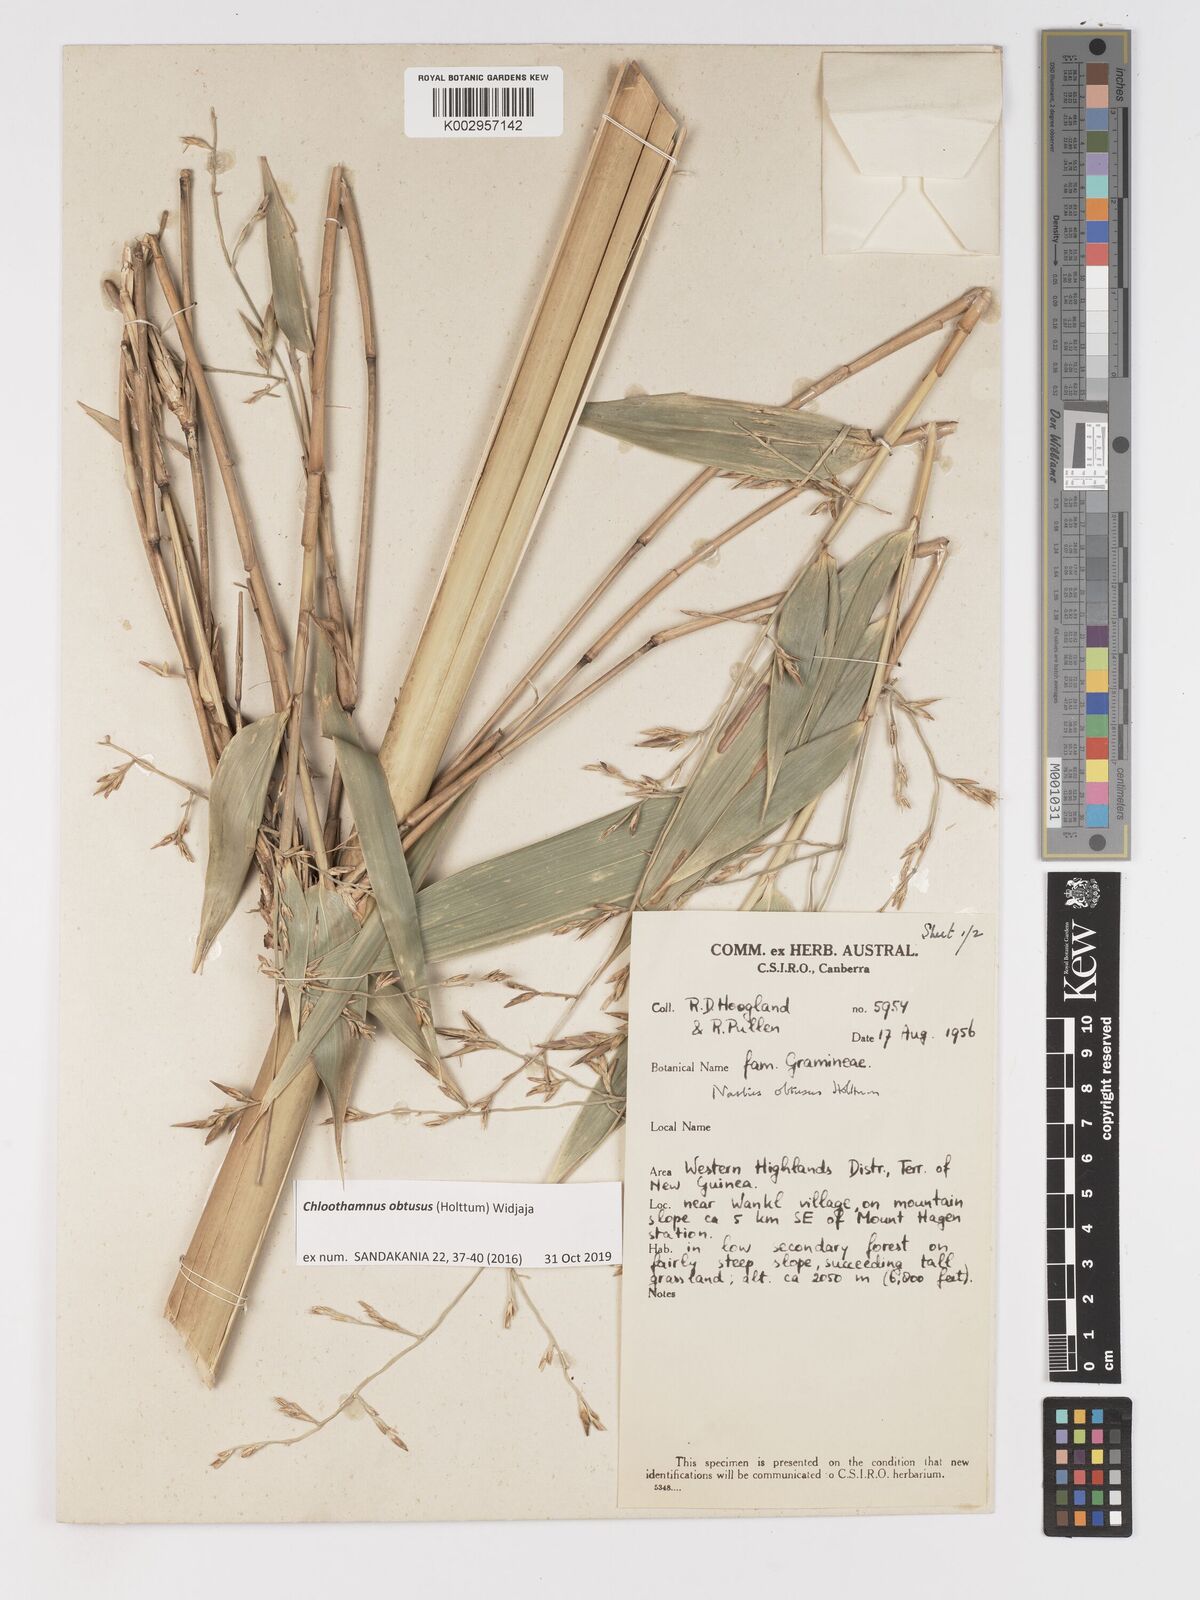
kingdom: Plantae
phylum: Tracheophyta
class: Liliopsida
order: Poales
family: Poaceae
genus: Chloothamnus
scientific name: Chloothamnus obtusus
